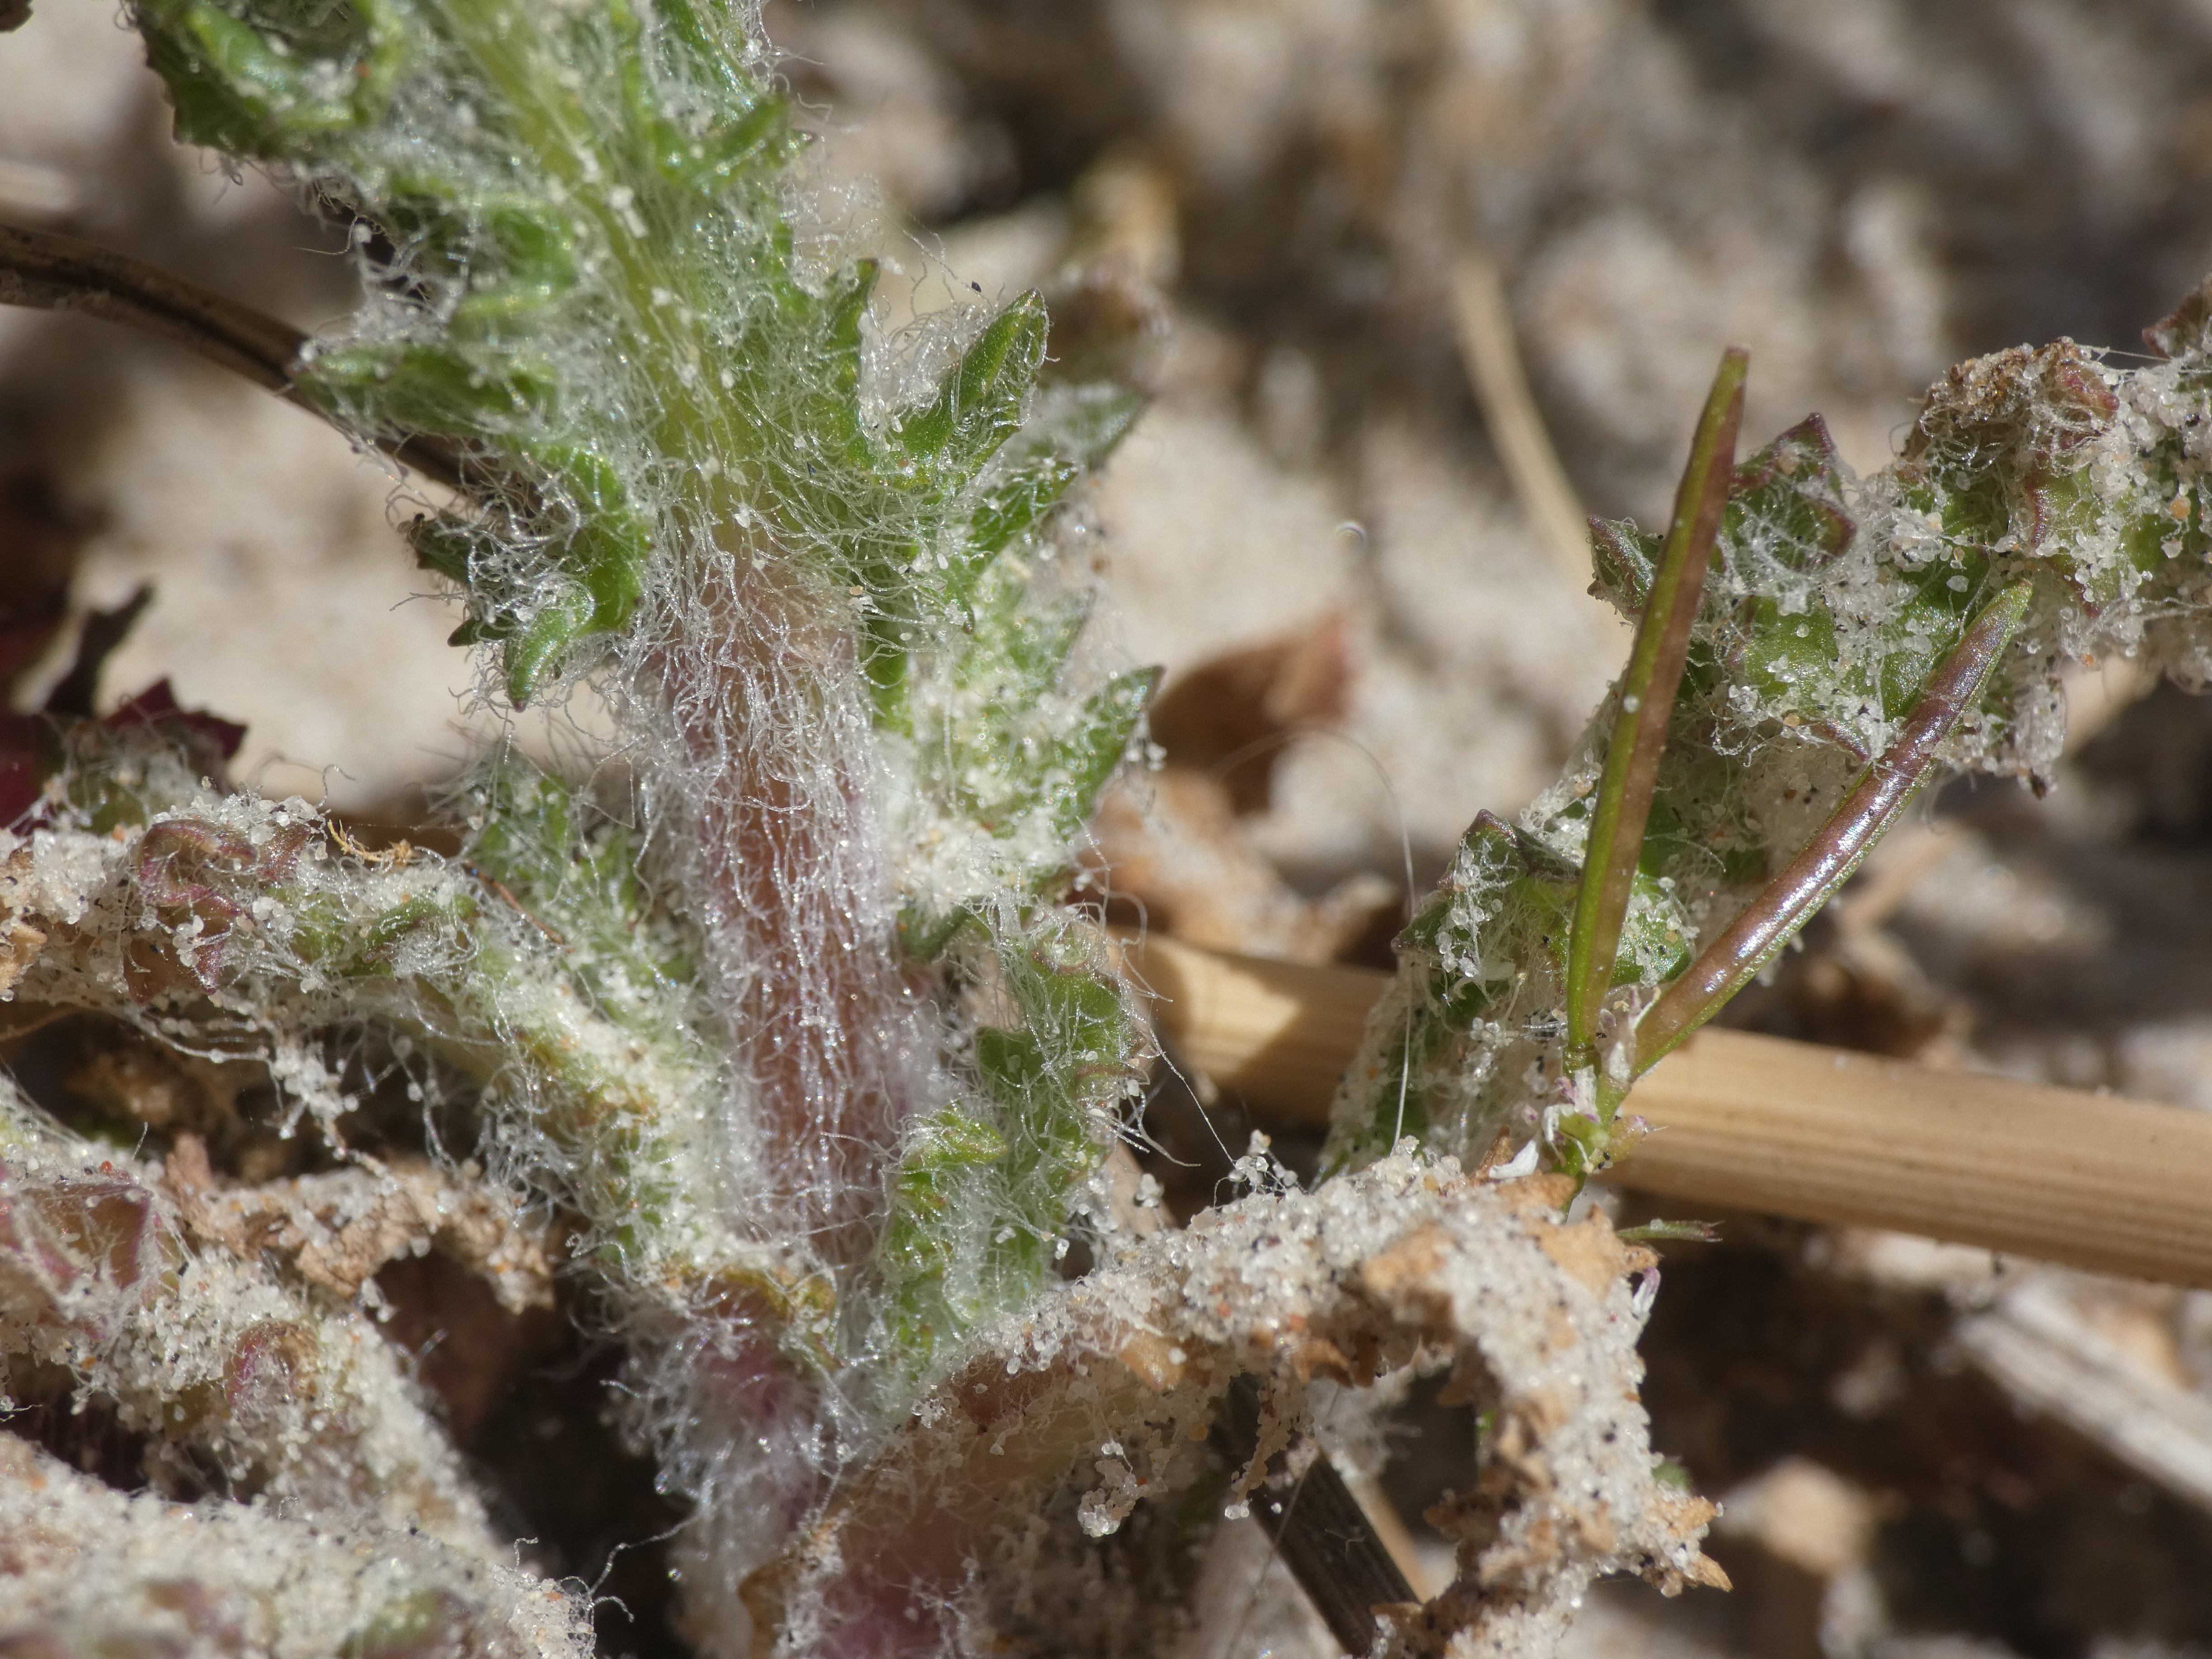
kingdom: Plantae
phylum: Tracheophyta
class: Magnoliopsida
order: Asterales
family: Asteraceae
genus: Senecio
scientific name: Senecio leucanthemifolius
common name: Vår-brandbæger
